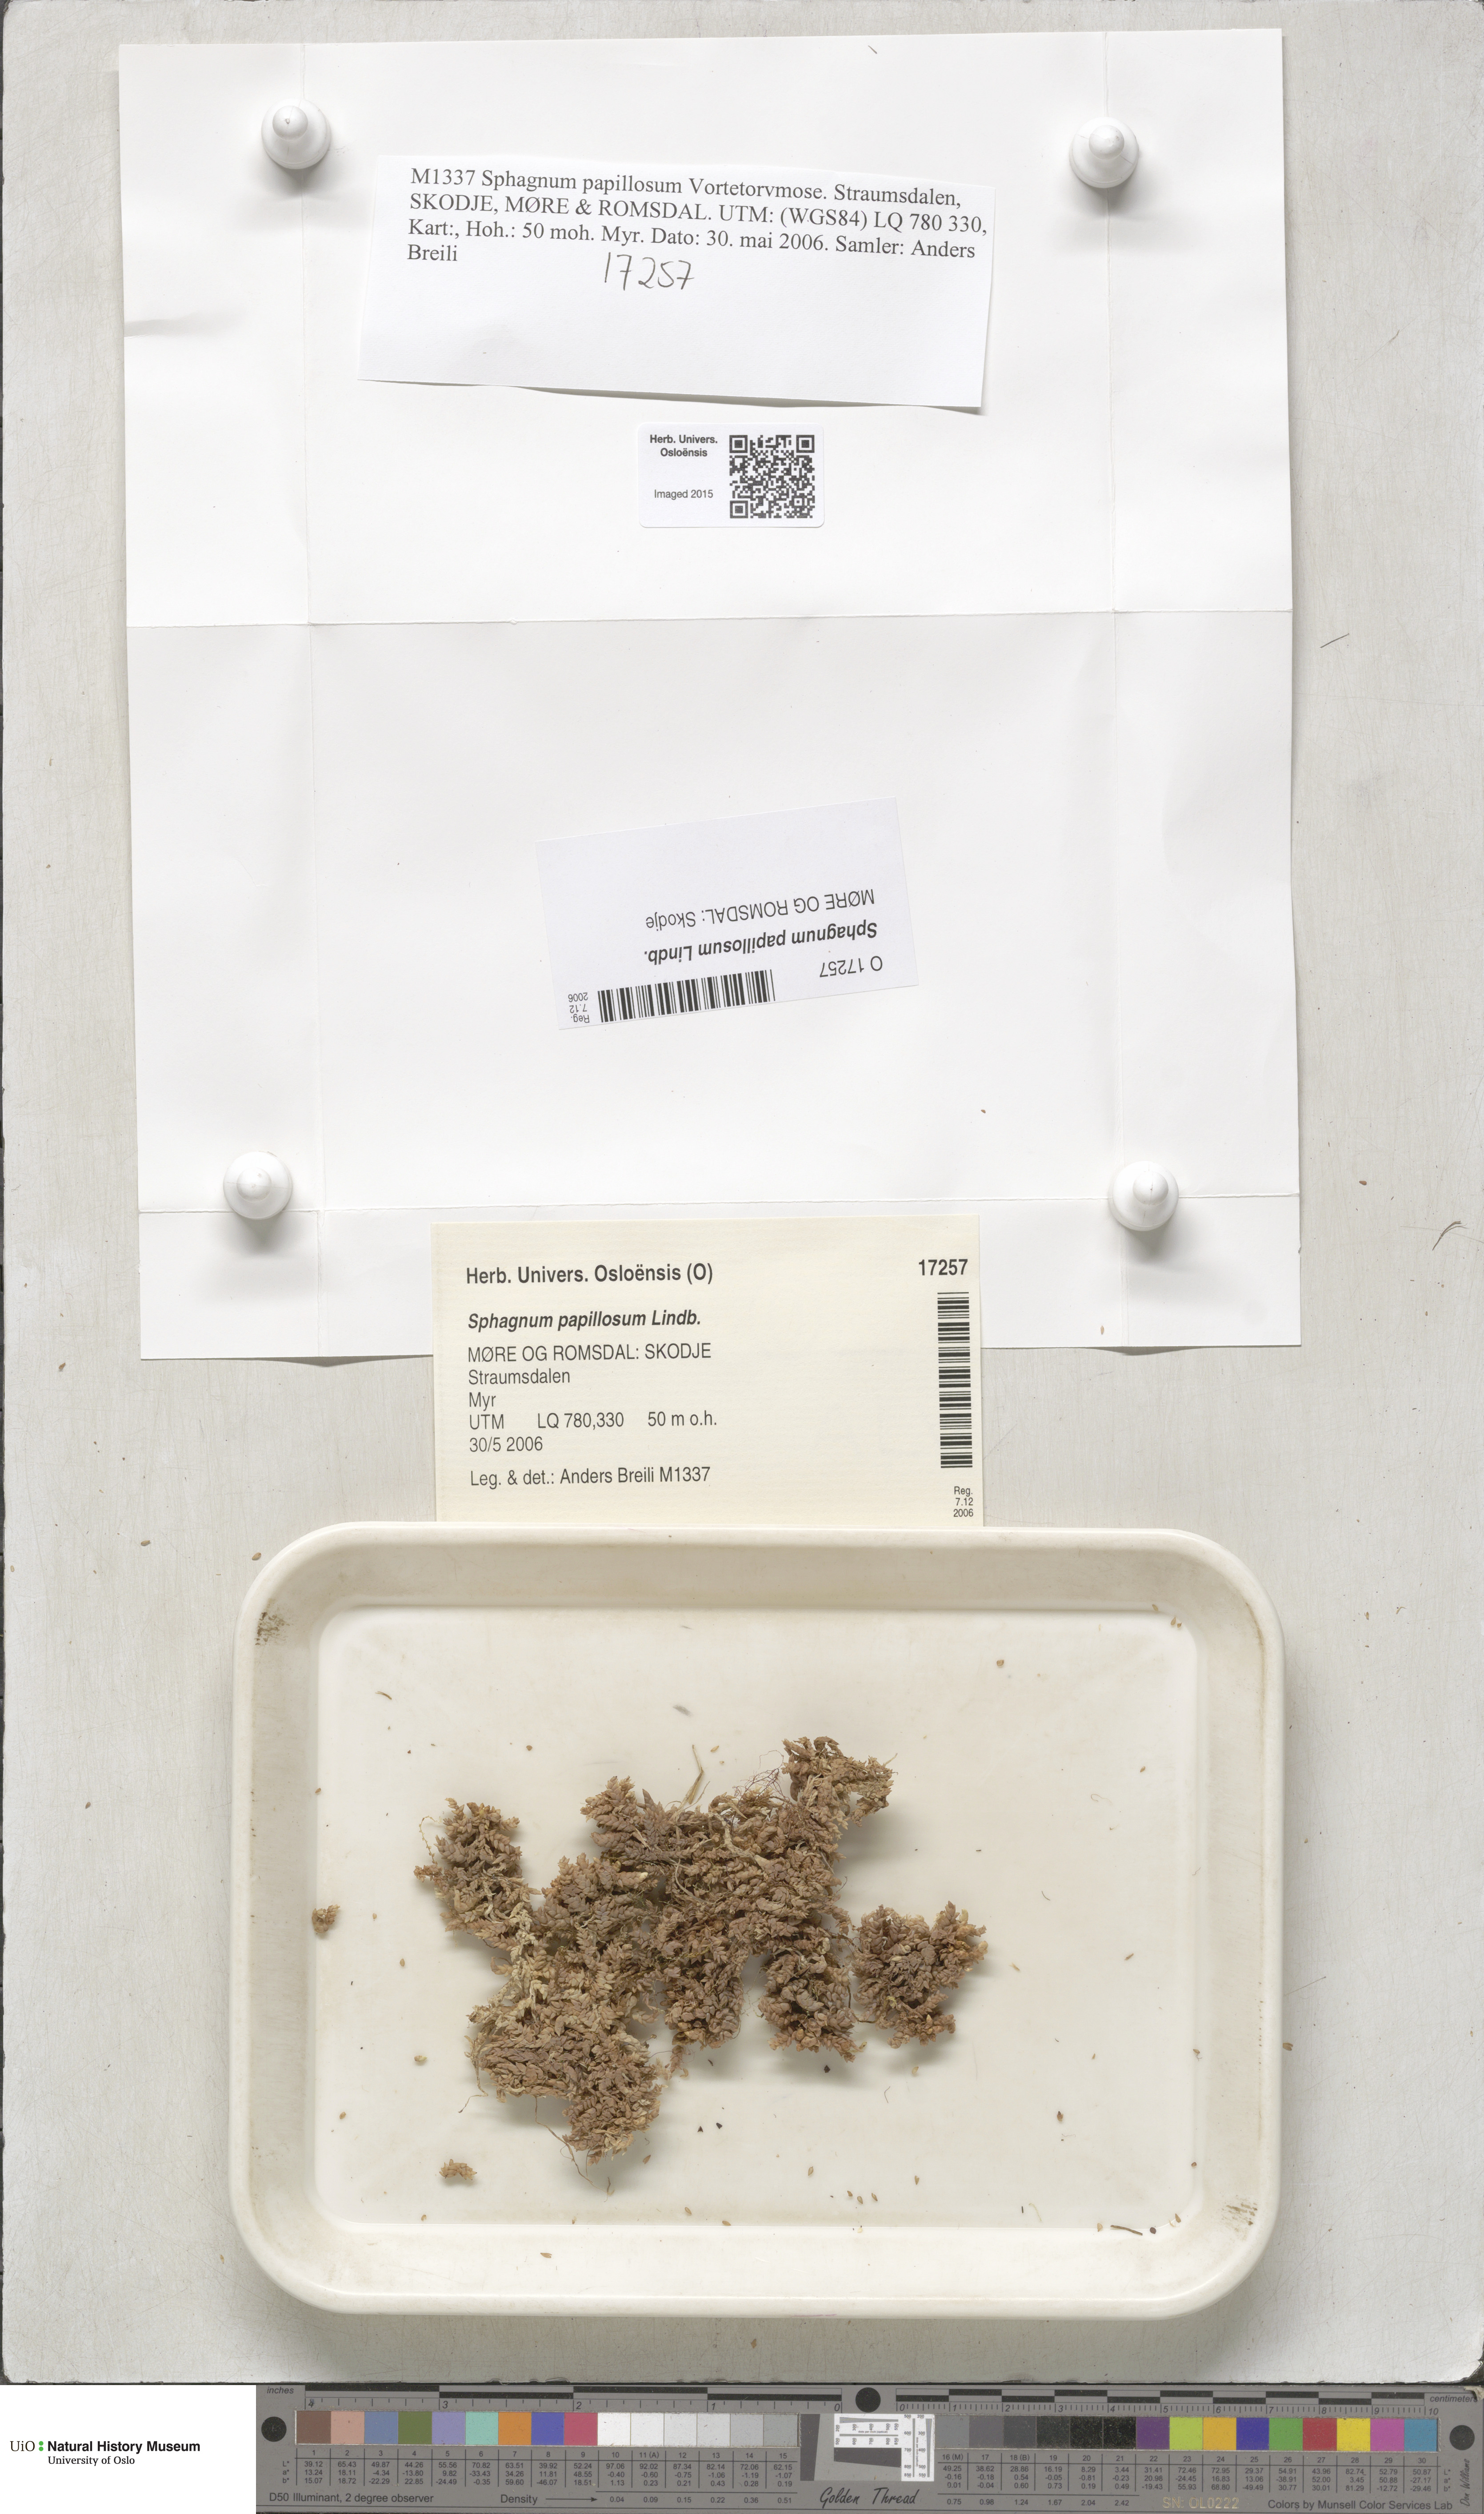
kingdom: Plantae
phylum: Bryophyta
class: Sphagnopsida
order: Sphagnales
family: Sphagnaceae
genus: Sphagnum
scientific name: Sphagnum papillosum
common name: Papillose peat moss
